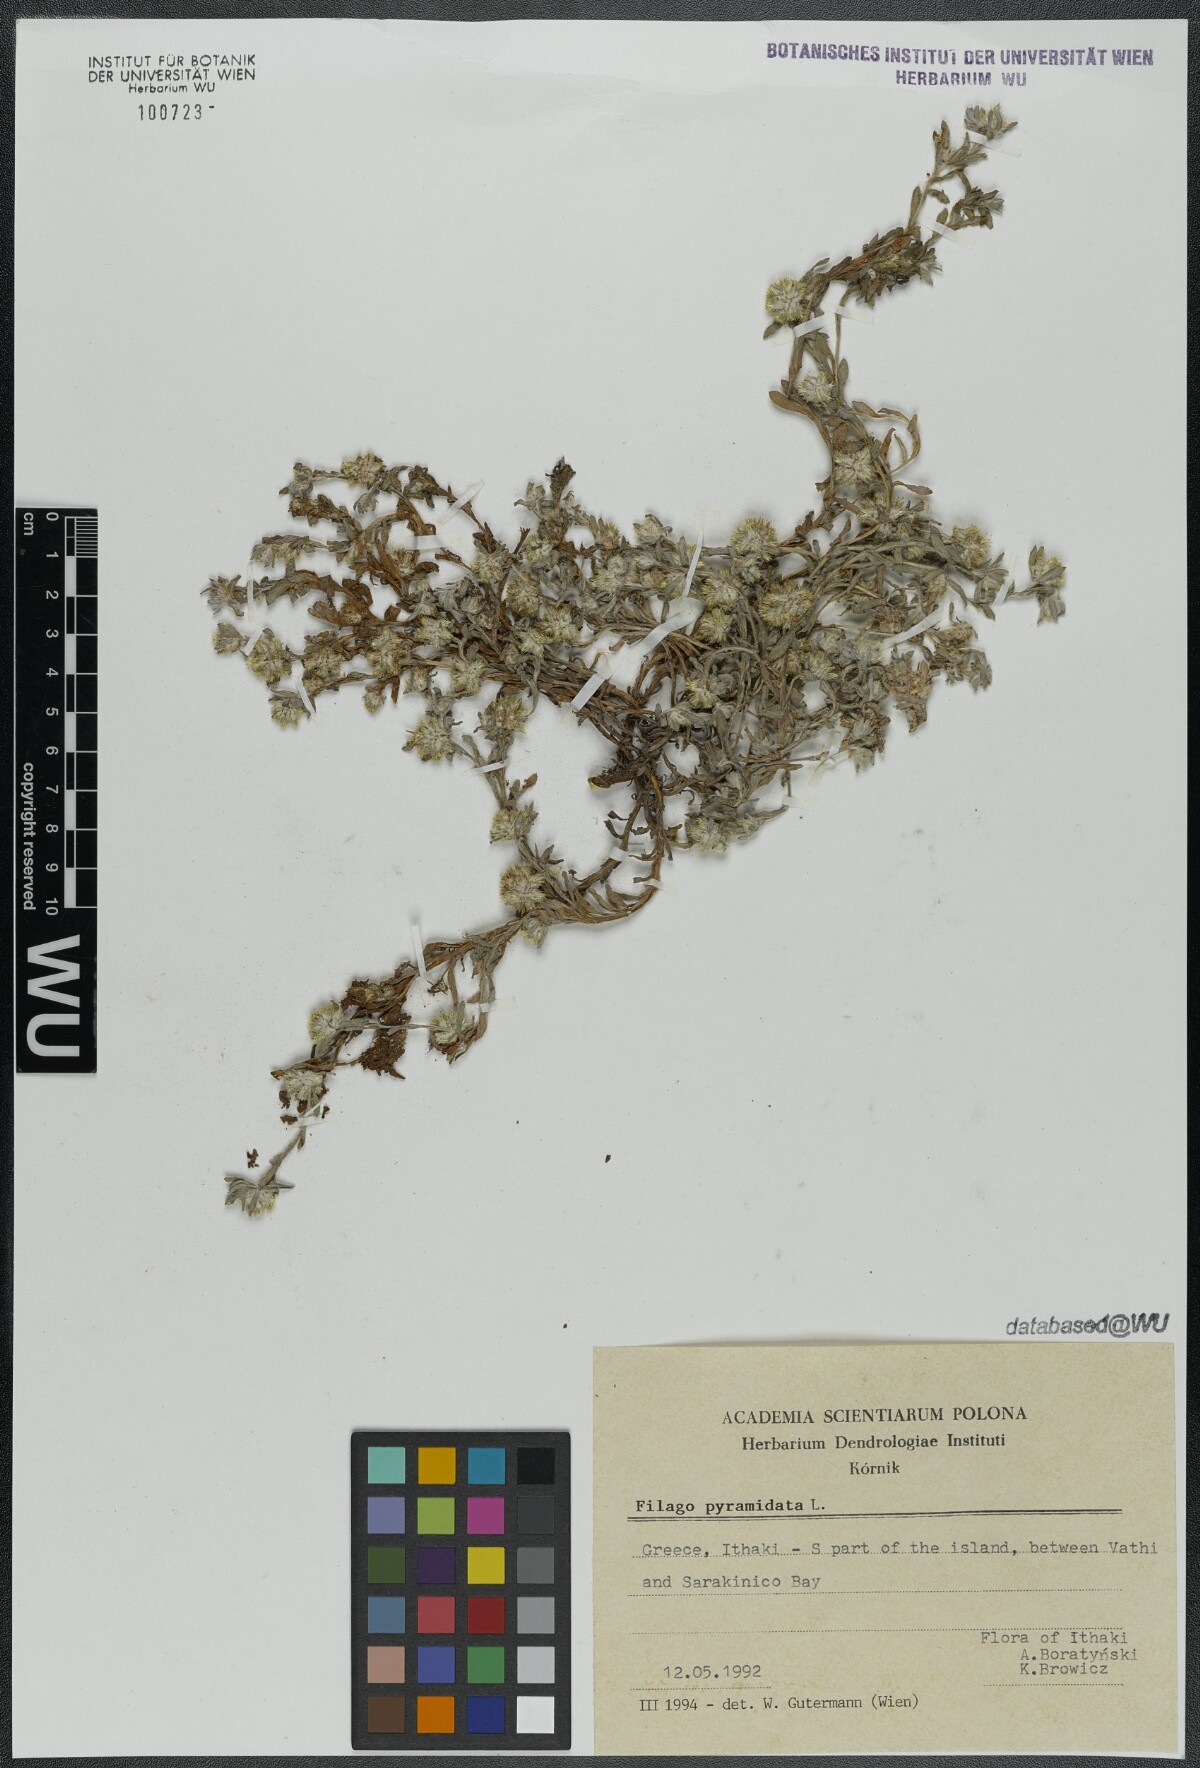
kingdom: Plantae
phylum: Tracheophyta
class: Magnoliopsida
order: Asterales
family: Asteraceae
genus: Filago
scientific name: Filago pyramidata
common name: Broad-leaved cudweed
